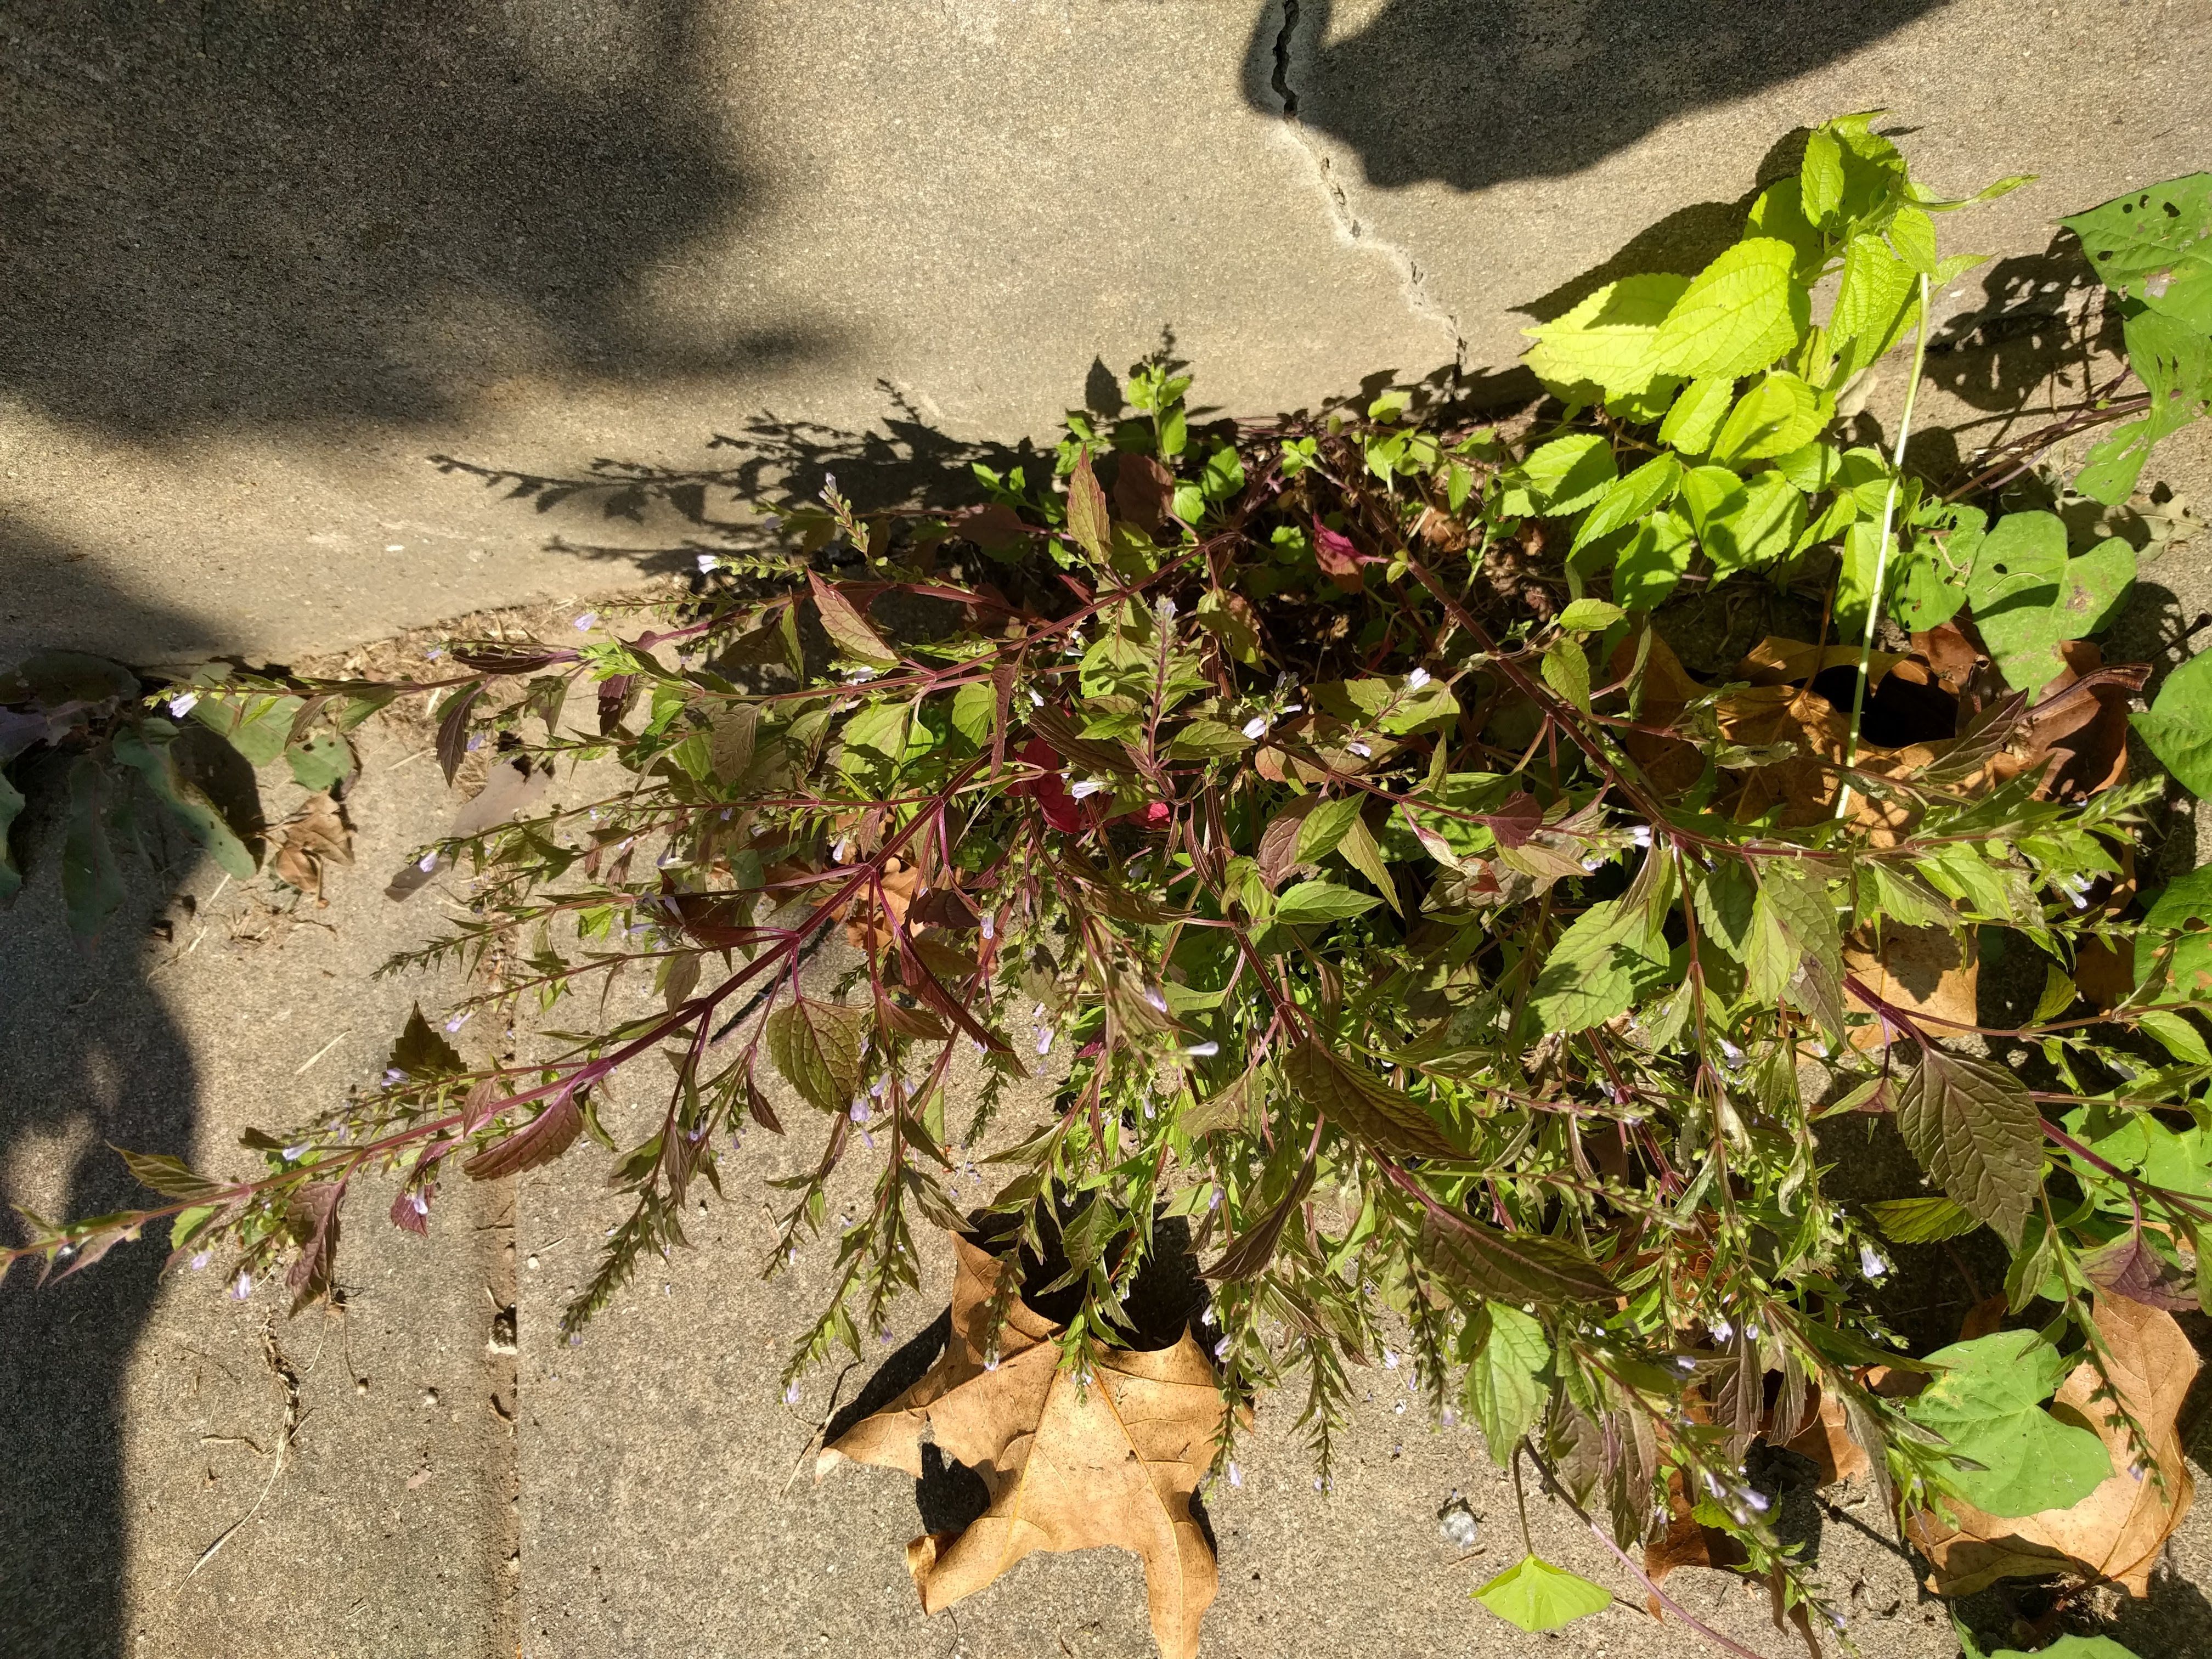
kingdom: Plantae
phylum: Tracheophyta
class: Magnoliopsida
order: Lamiales
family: Lamiaceae
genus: Scutellaria
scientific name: Scutellaria lateriflora
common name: Blue skullcap
